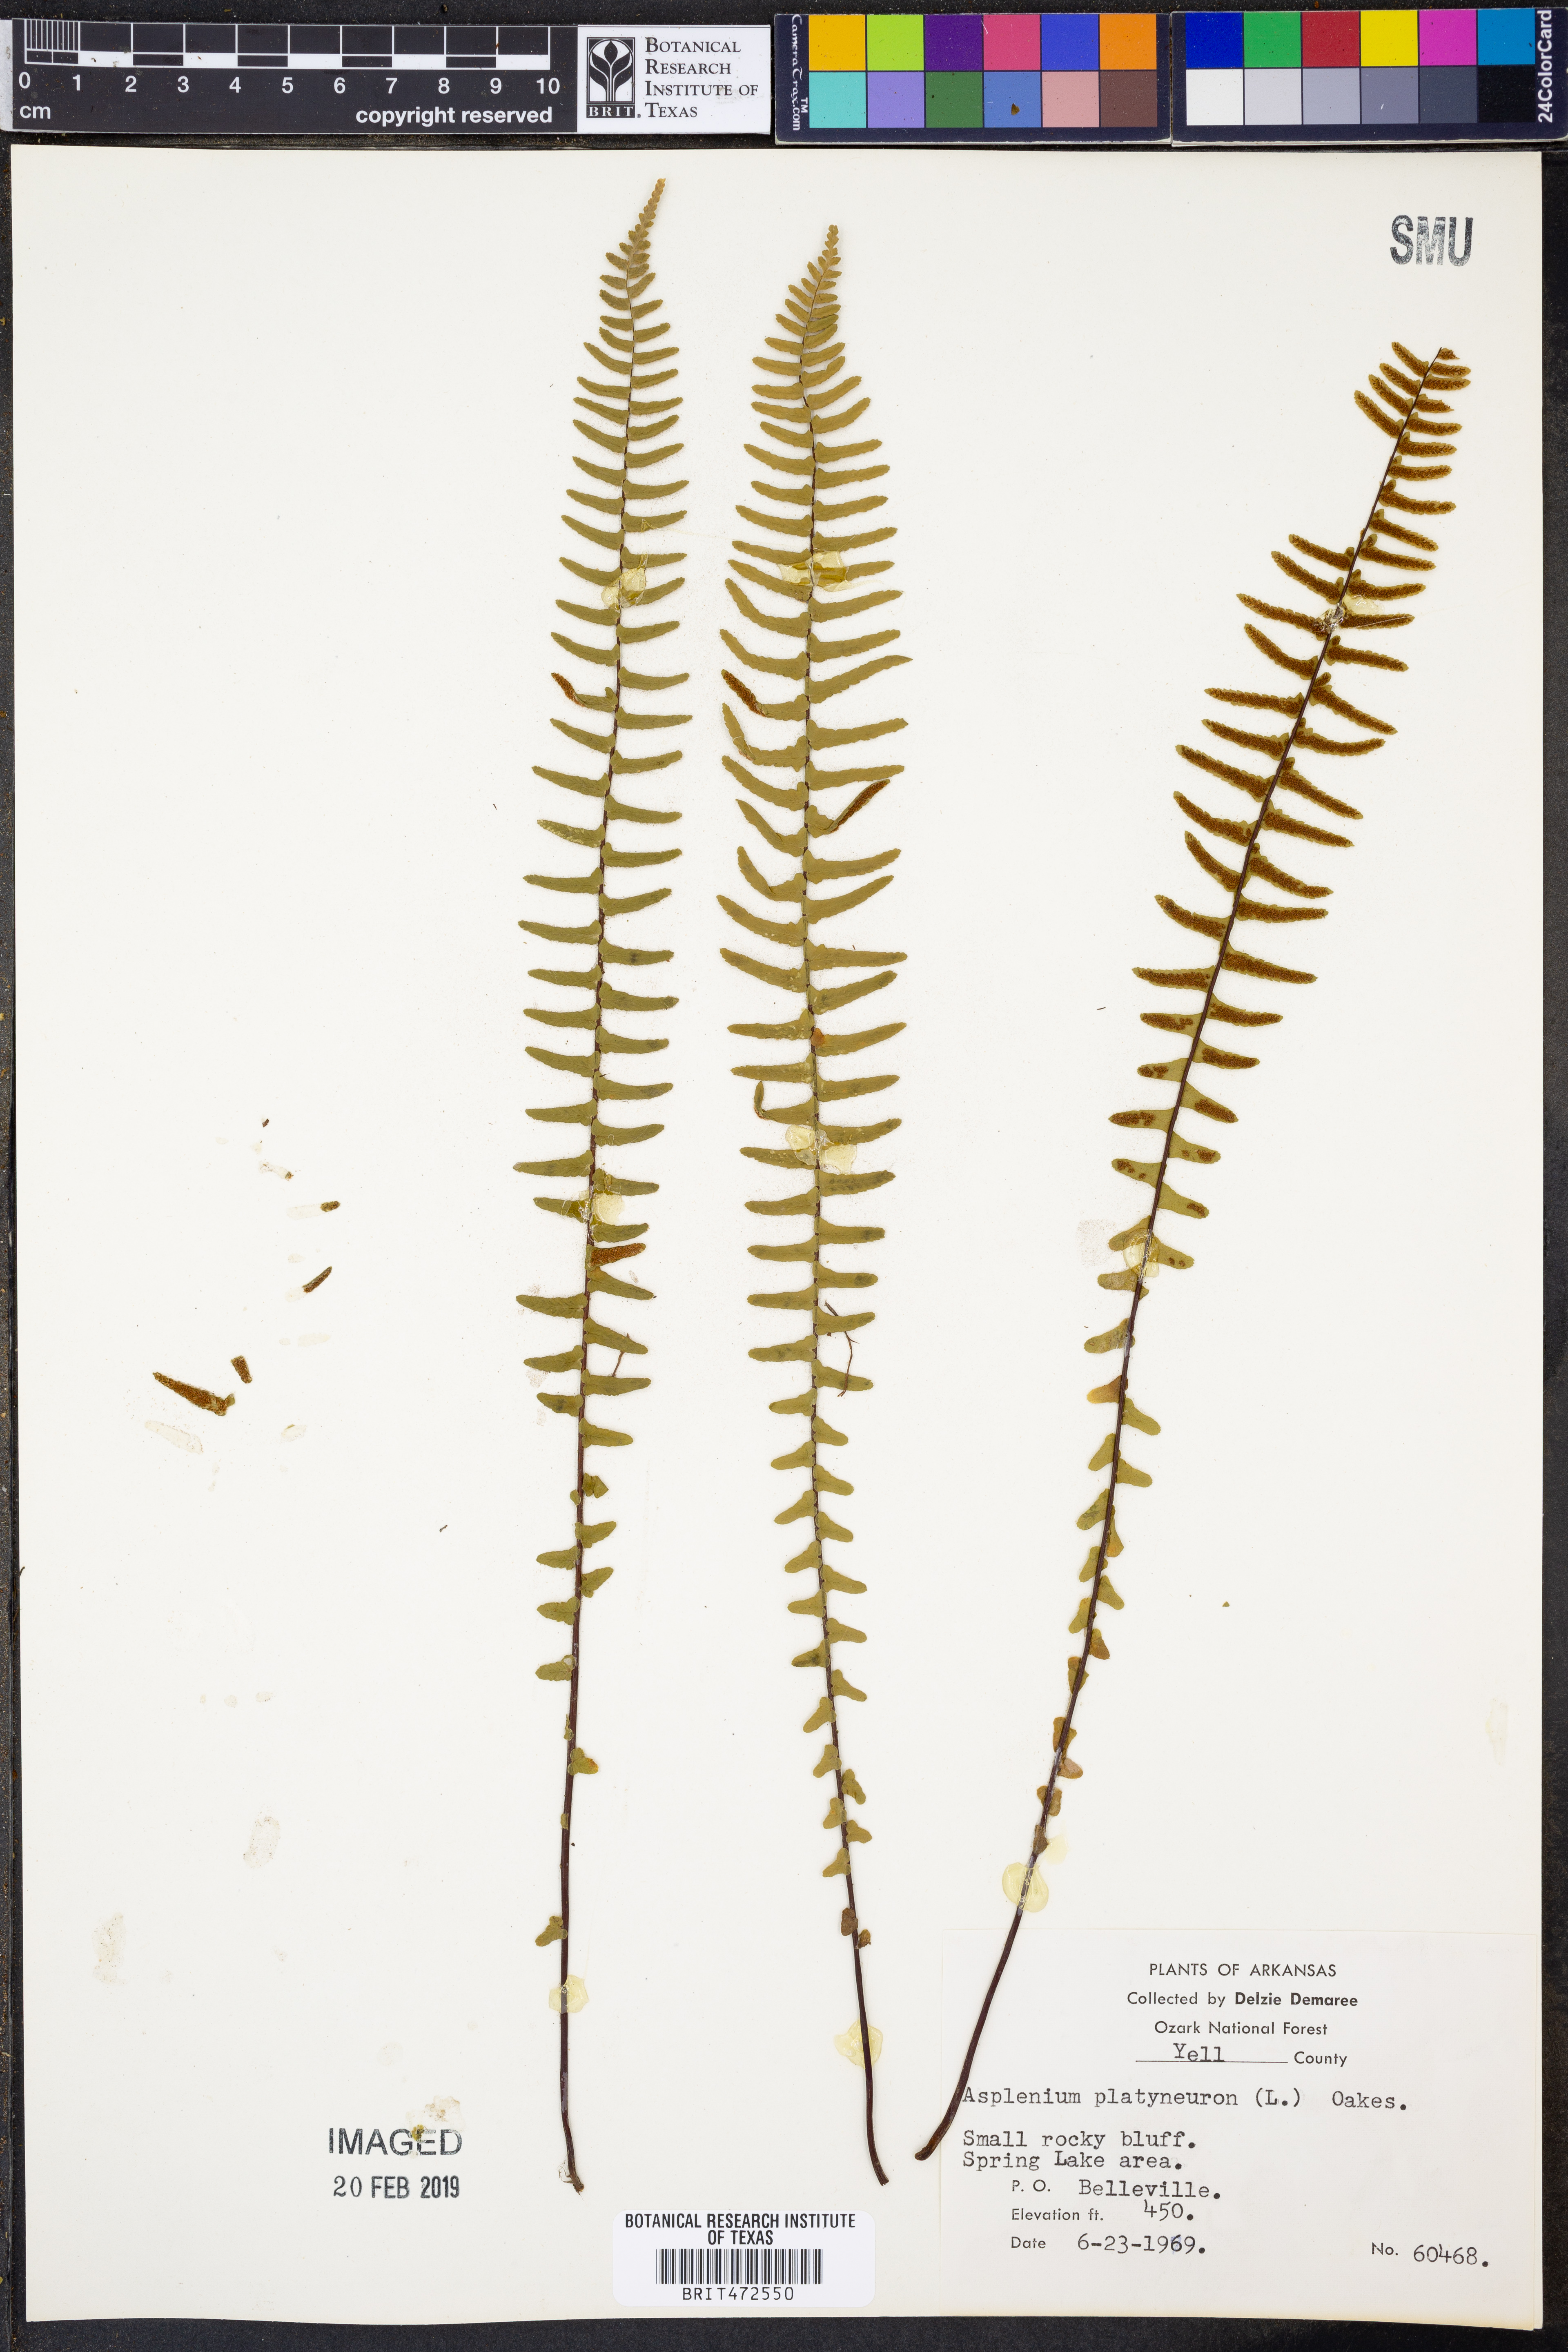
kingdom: Plantae
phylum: Tracheophyta
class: Polypodiopsida
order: Polypodiales
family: Aspleniaceae
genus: Asplenium
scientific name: Asplenium platyneuron
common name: Ebony spleenwort
